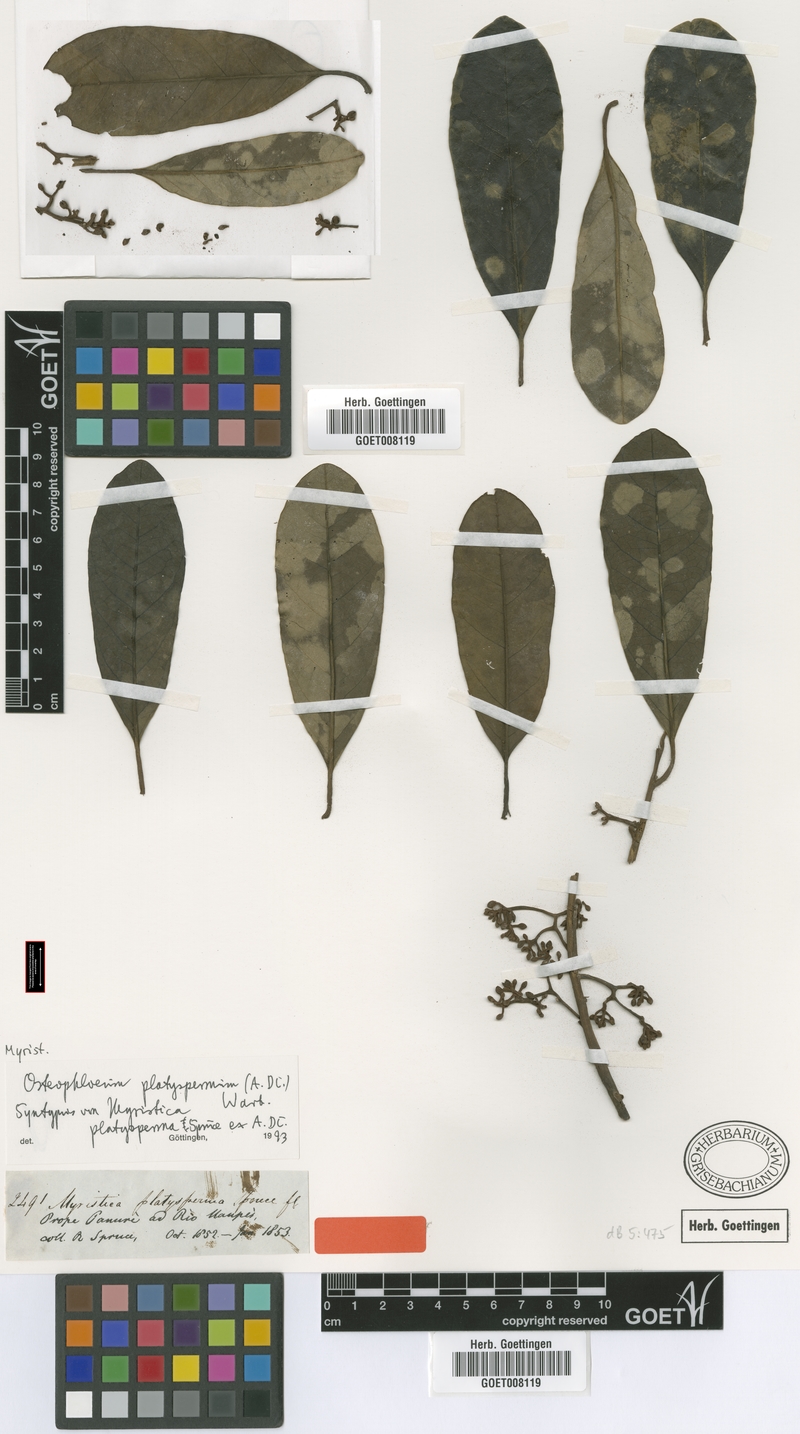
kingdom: Plantae
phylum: Tracheophyta
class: Magnoliopsida
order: Magnoliales
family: Myristicaceae
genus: Osteophloeum
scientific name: Osteophloeum platyspermum
